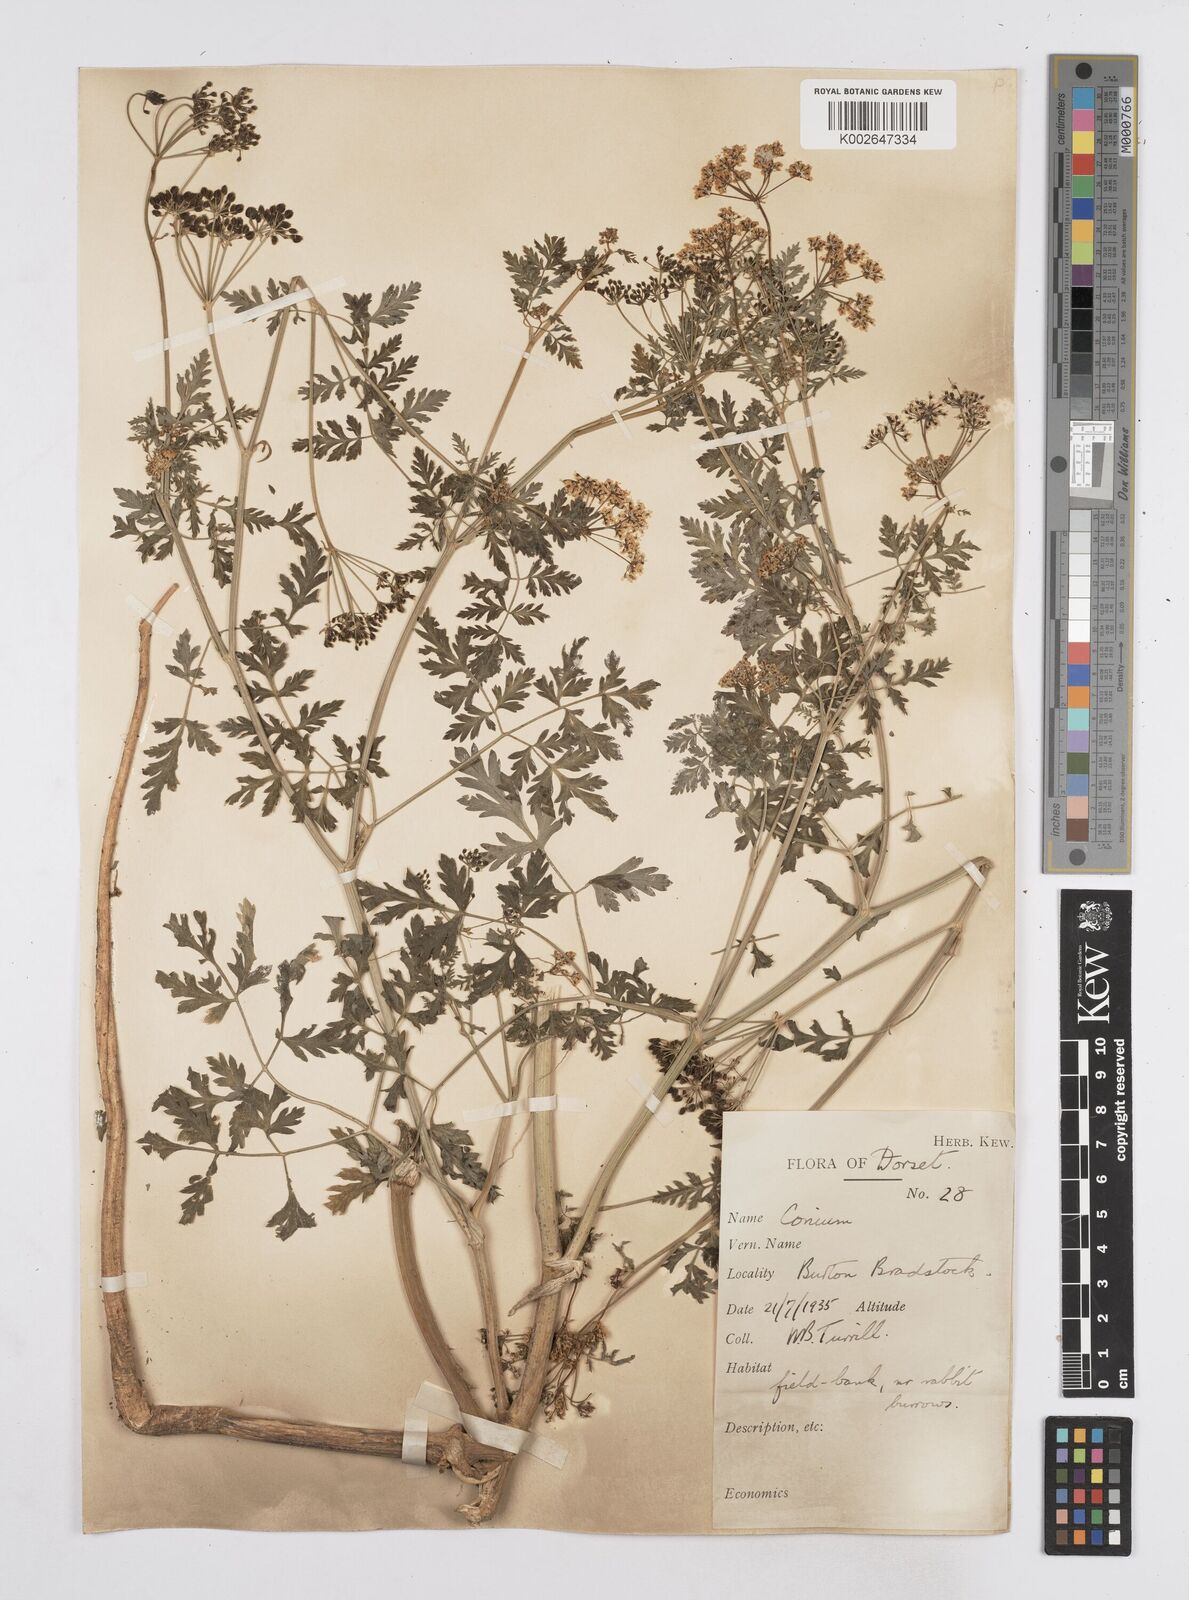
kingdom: Plantae
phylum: Tracheophyta
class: Magnoliopsida
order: Apiales
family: Apiaceae
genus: Conium
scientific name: Conium maculatum
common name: Hemlock
